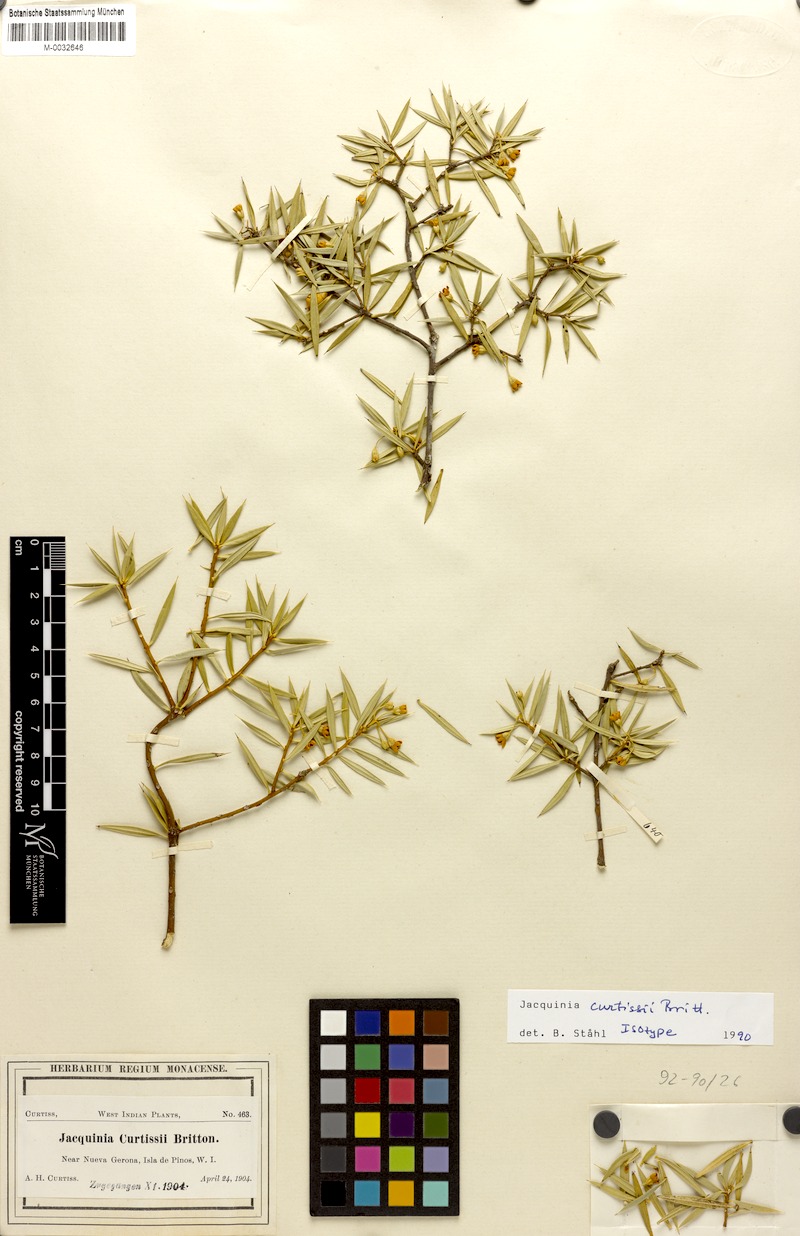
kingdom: Plantae
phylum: Tracheophyta
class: Magnoliopsida
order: Ericales
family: Primulaceae
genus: Bonellia
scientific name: Bonellia curtissii
